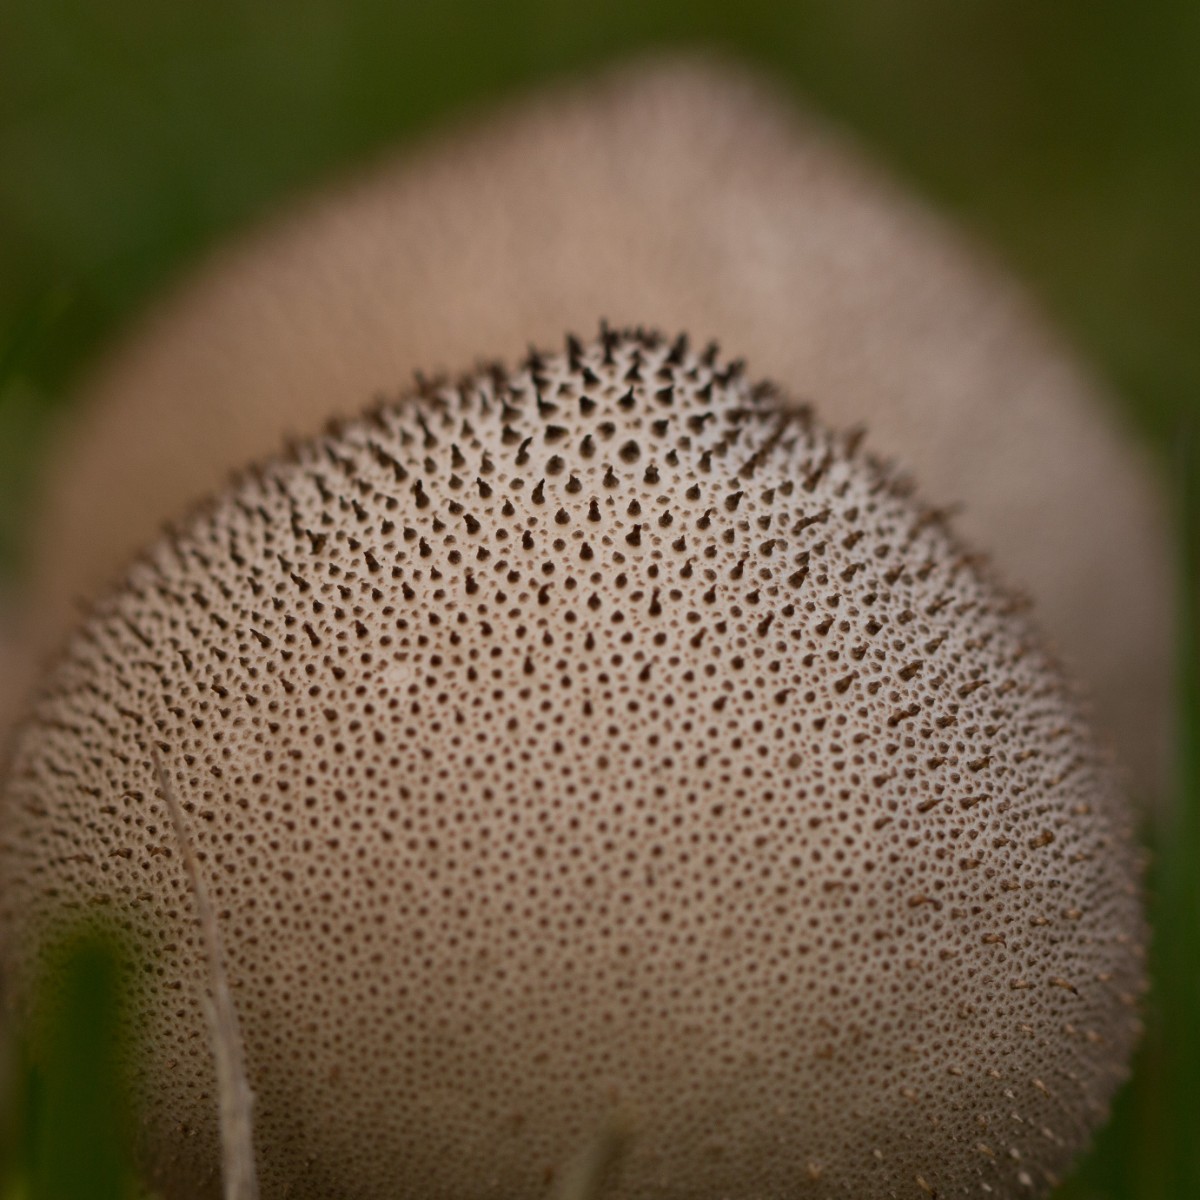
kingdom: Fungi
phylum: Basidiomycota
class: Agaricomycetes
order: Agaricales
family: Lycoperdaceae
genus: Lycoperdon
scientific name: Lycoperdon perlatum
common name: krystal-støvbold
